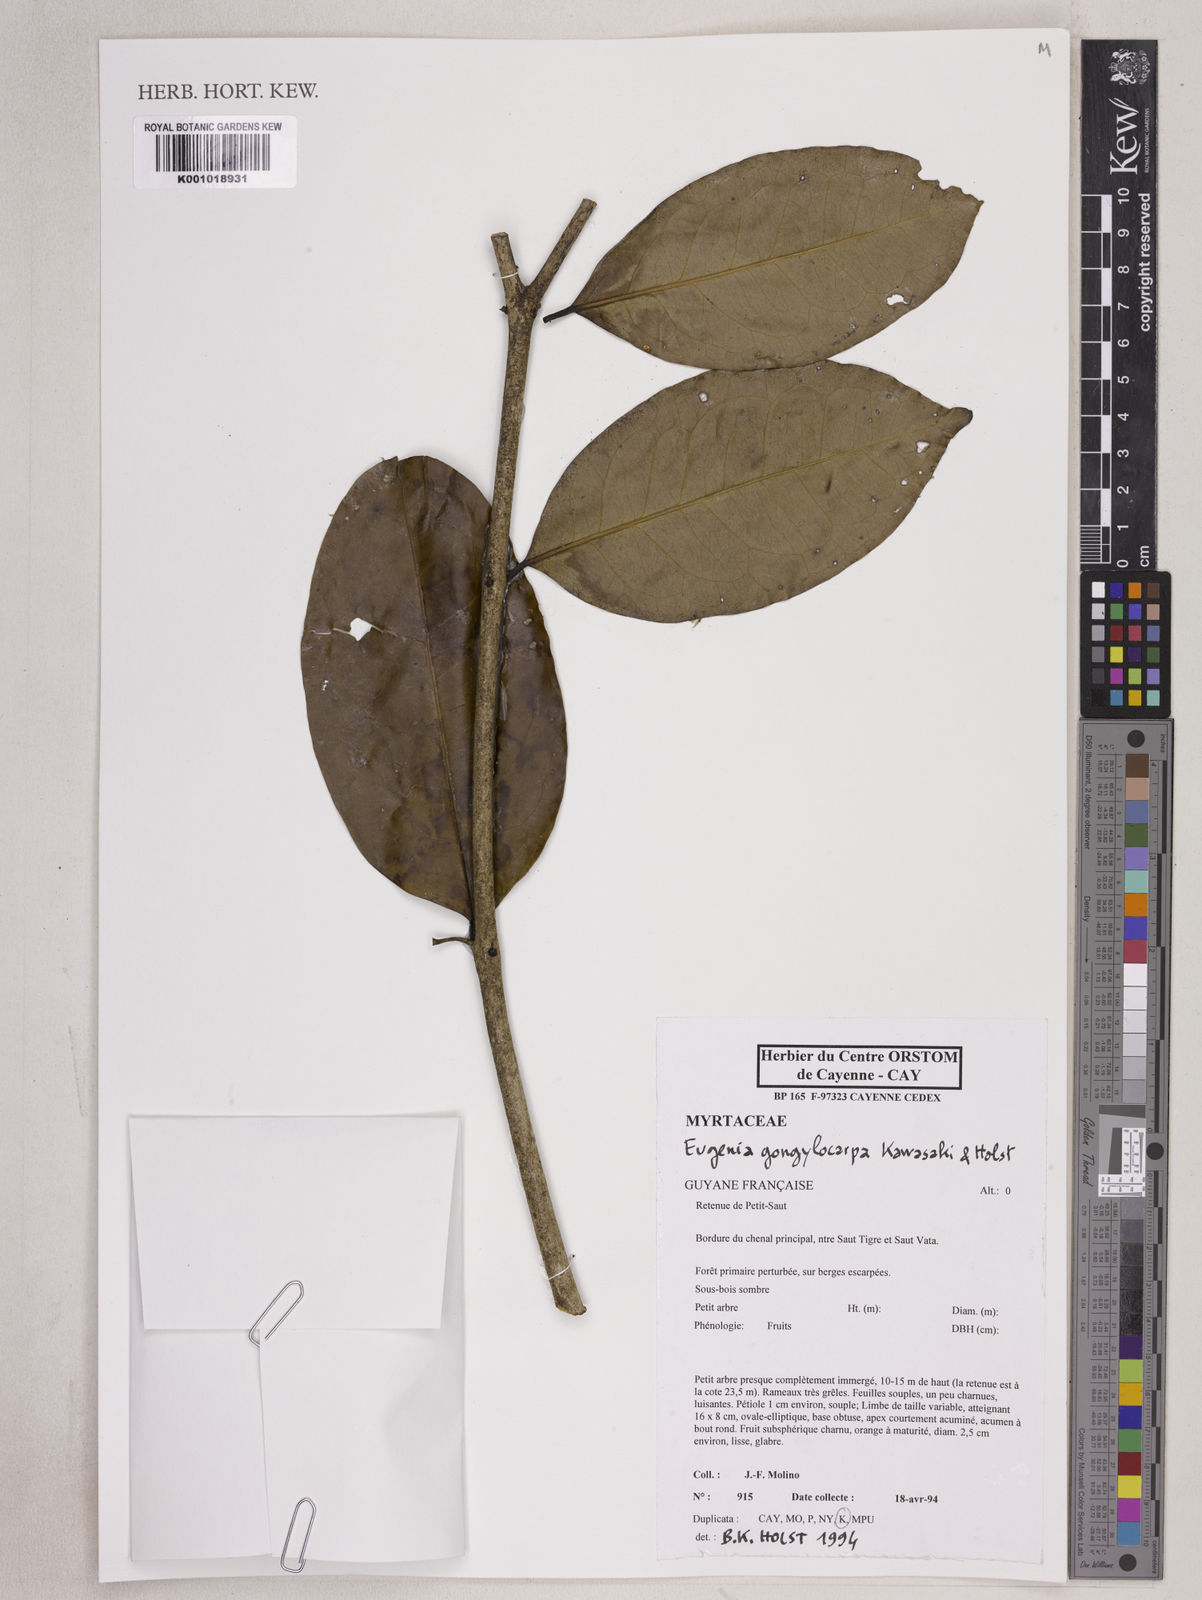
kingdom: Plantae
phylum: Tracheophyta
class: Magnoliopsida
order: Myrtales
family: Myrtaceae
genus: Eugenia
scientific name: Eugenia gongylocarpa
